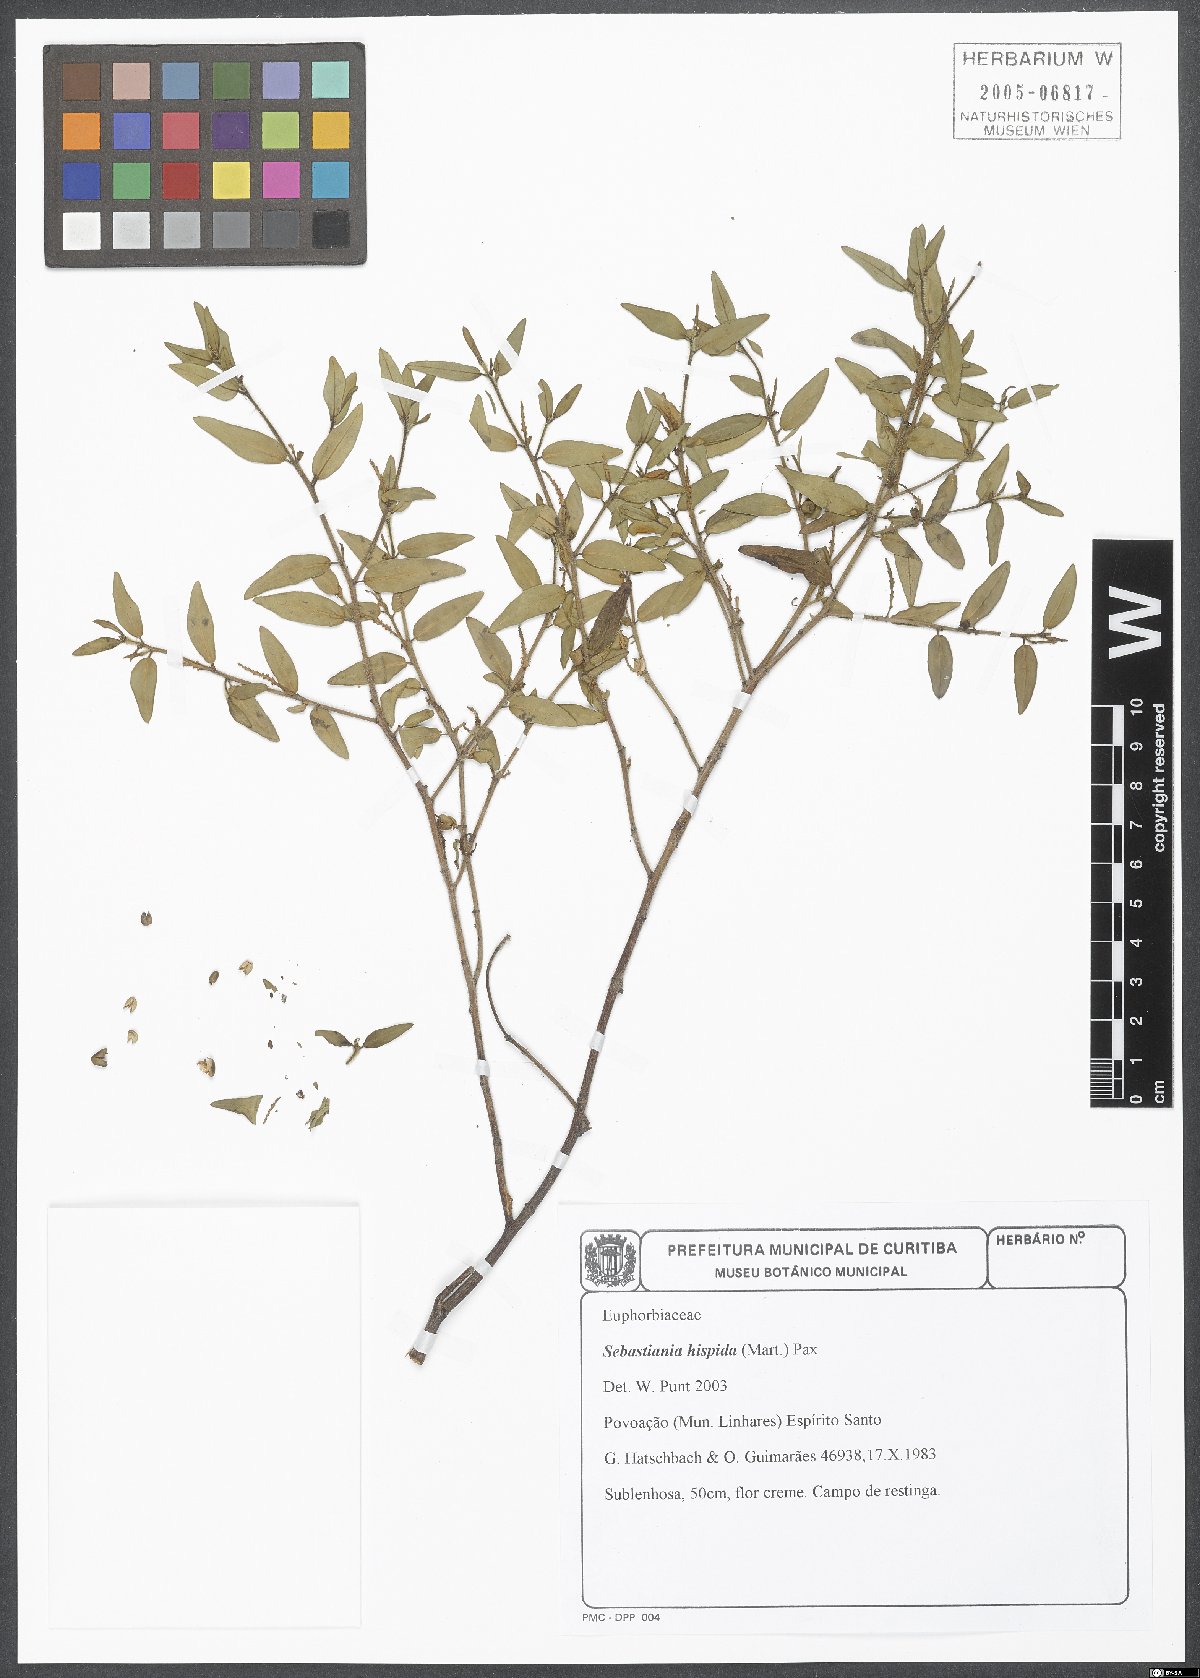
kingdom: Plantae
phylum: Tracheophyta
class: Magnoliopsida
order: Malpighiales
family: Euphorbiaceae
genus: Microstachys
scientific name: Microstachys hispida
